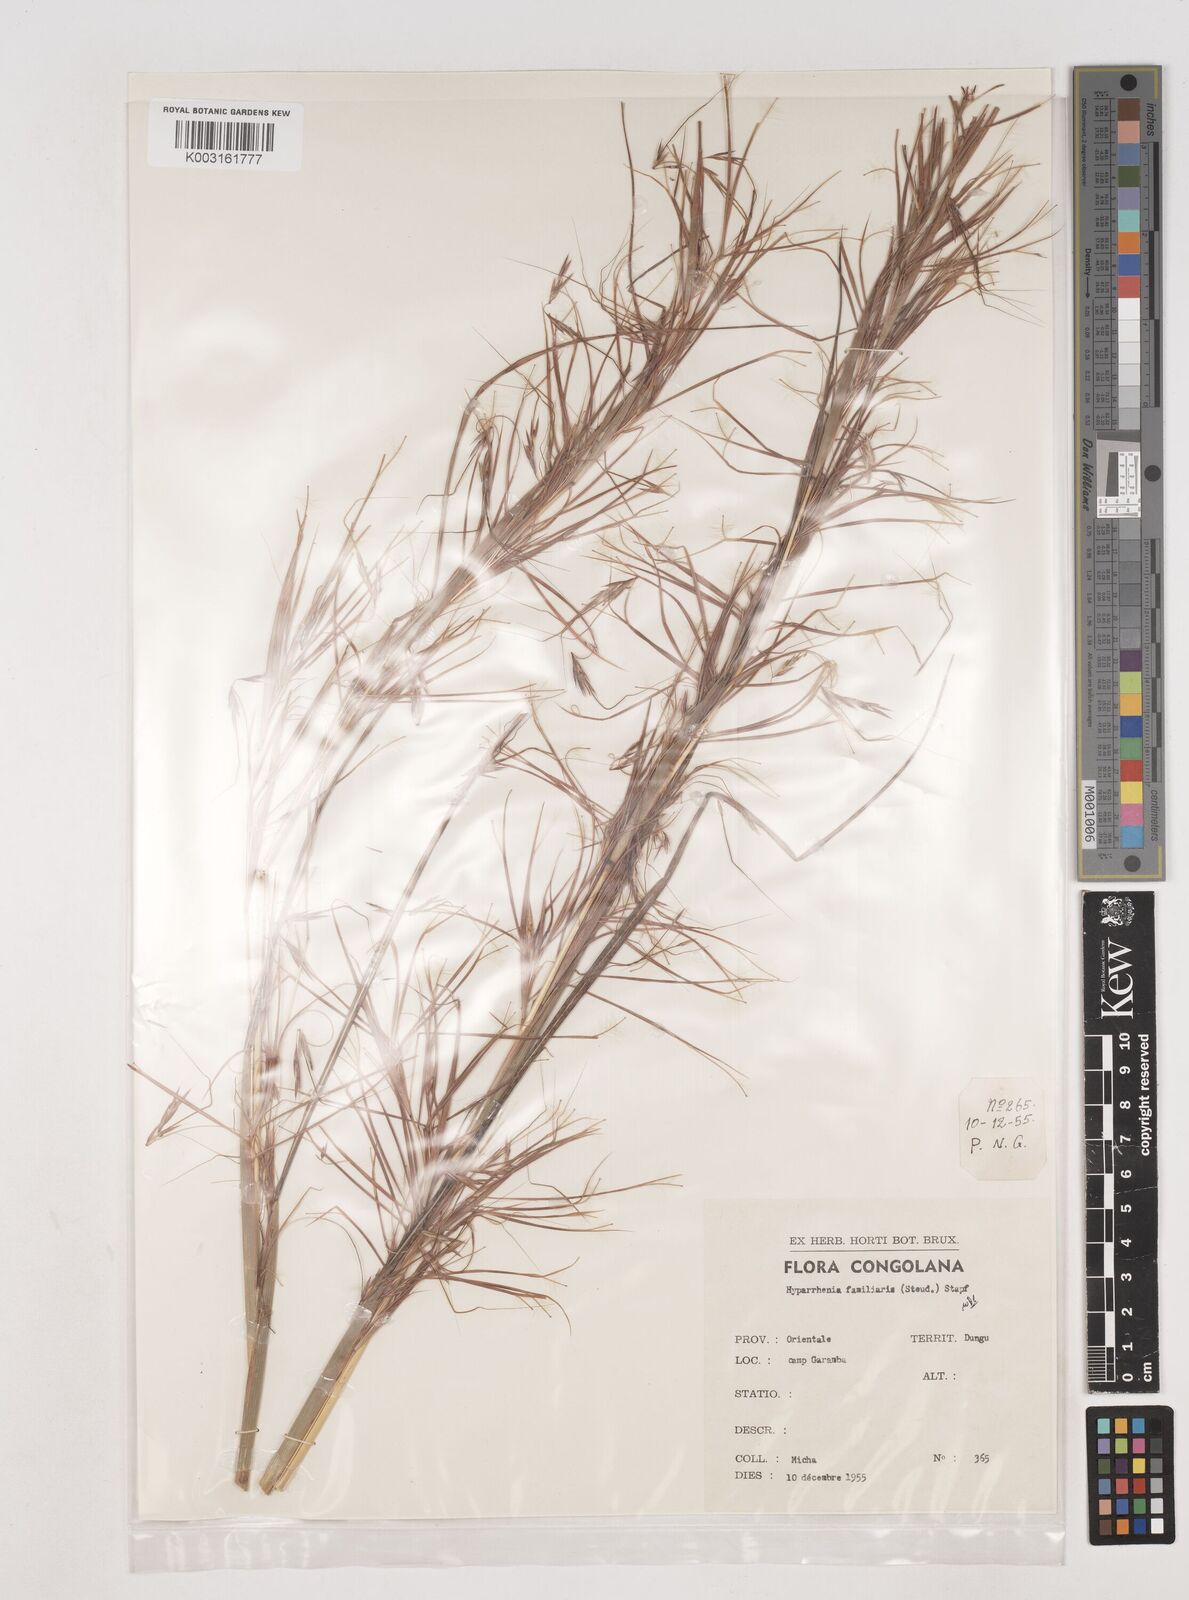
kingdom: Plantae
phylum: Tracheophyta
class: Liliopsida
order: Poales
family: Poaceae
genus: Hyparrhenia
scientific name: Hyparrhenia familiaris
